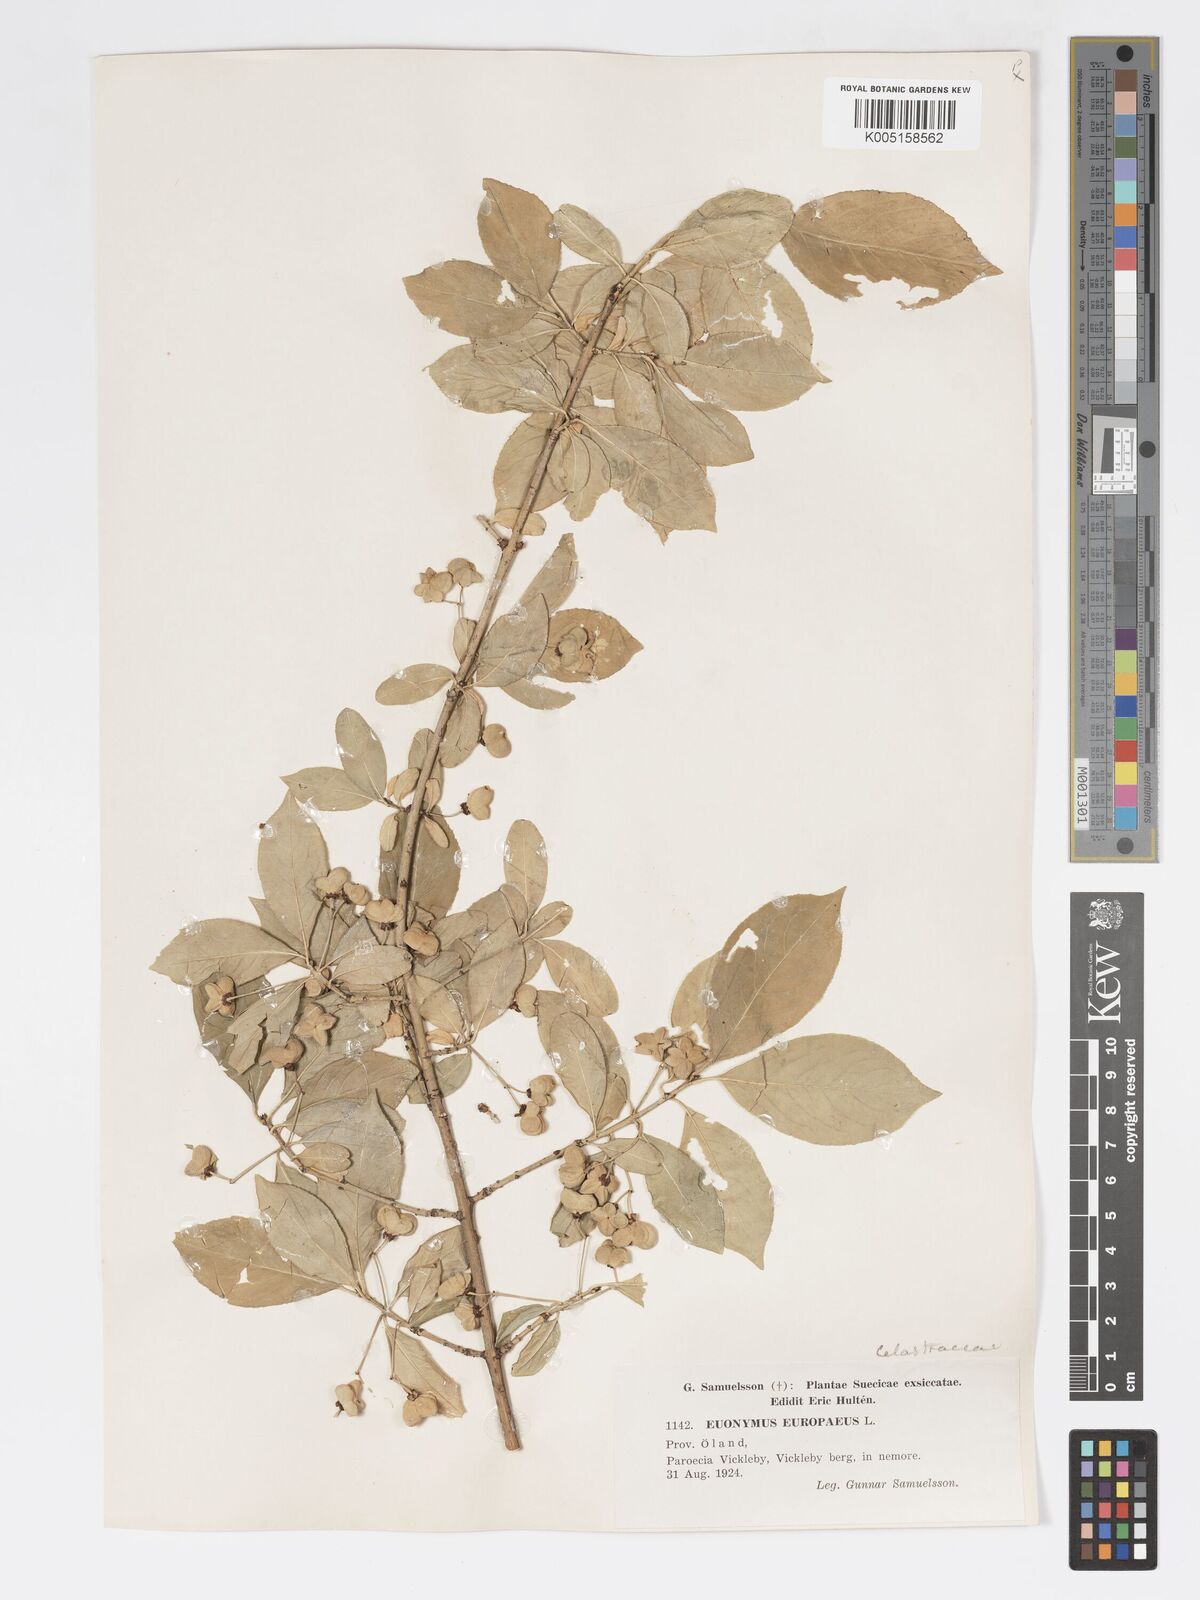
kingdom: Plantae
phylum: Tracheophyta
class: Magnoliopsida
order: Celastrales
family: Celastraceae
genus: Euonymus
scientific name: Euonymus europaeus
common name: Spindle
